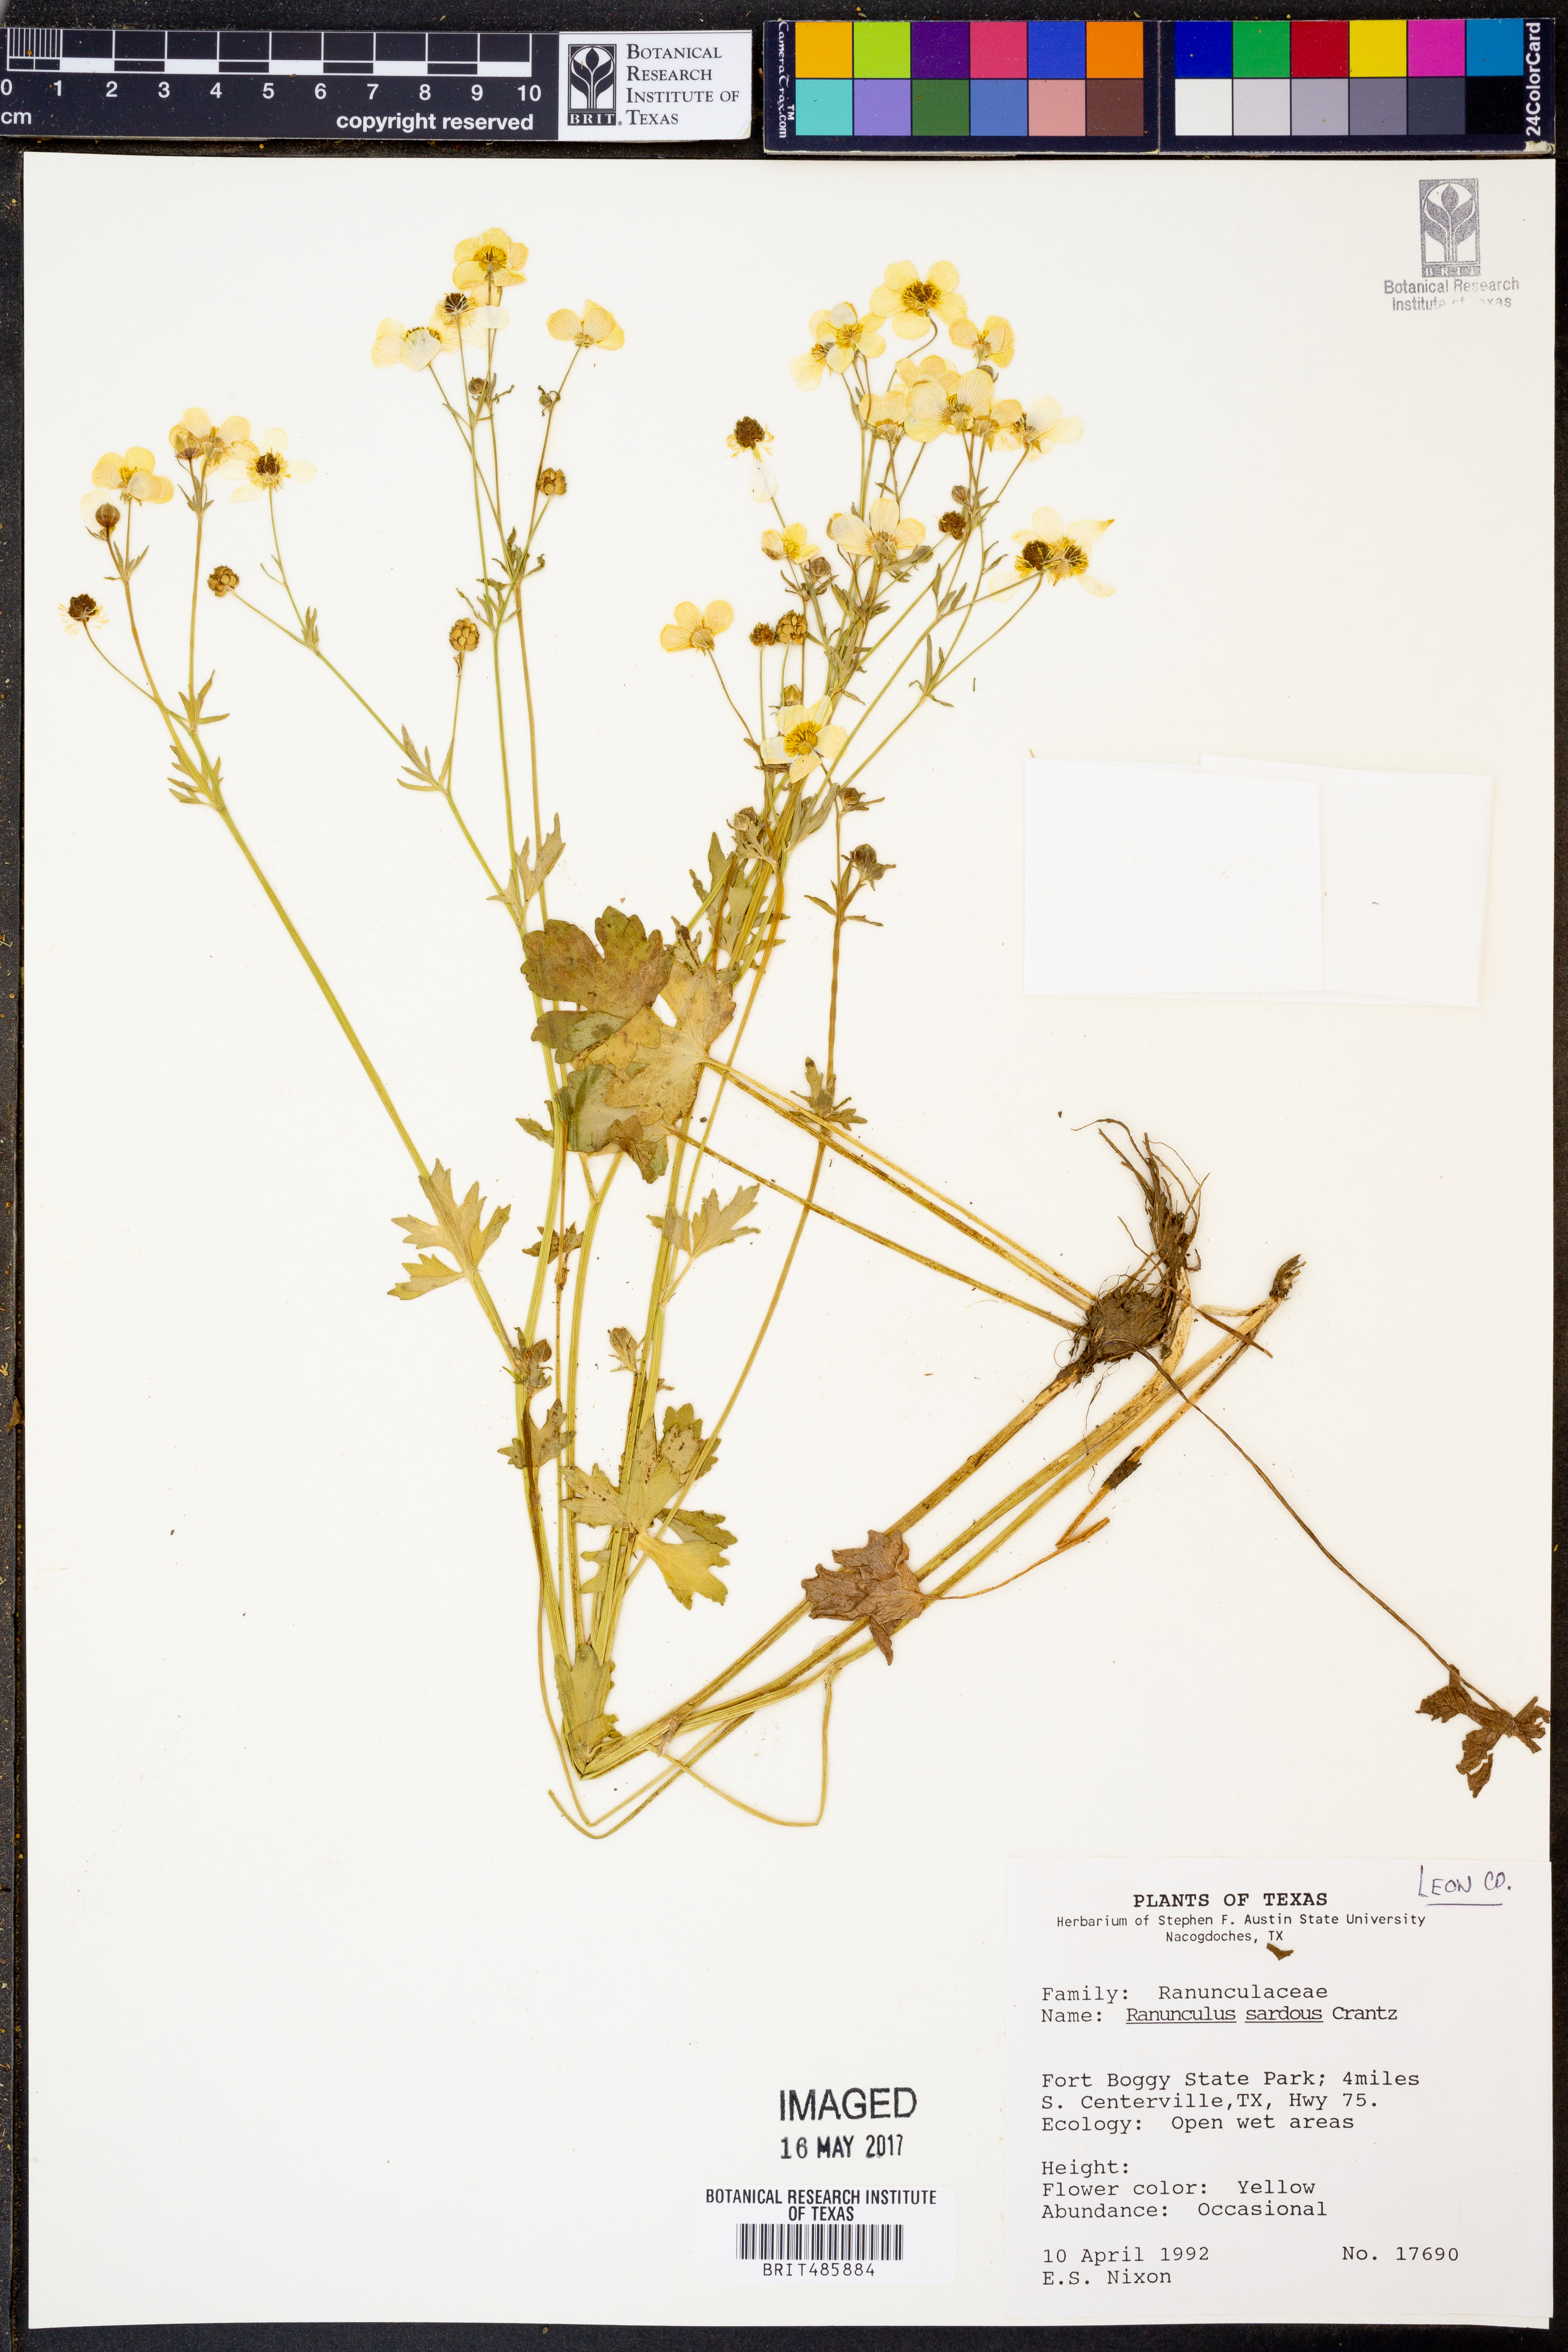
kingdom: Plantae
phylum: Tracheophyta
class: Magnoliopsida
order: Ranunculales
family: Ranunculaceae
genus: Ranunculus
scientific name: Ranunculus sardous
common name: Hairy buttercup
